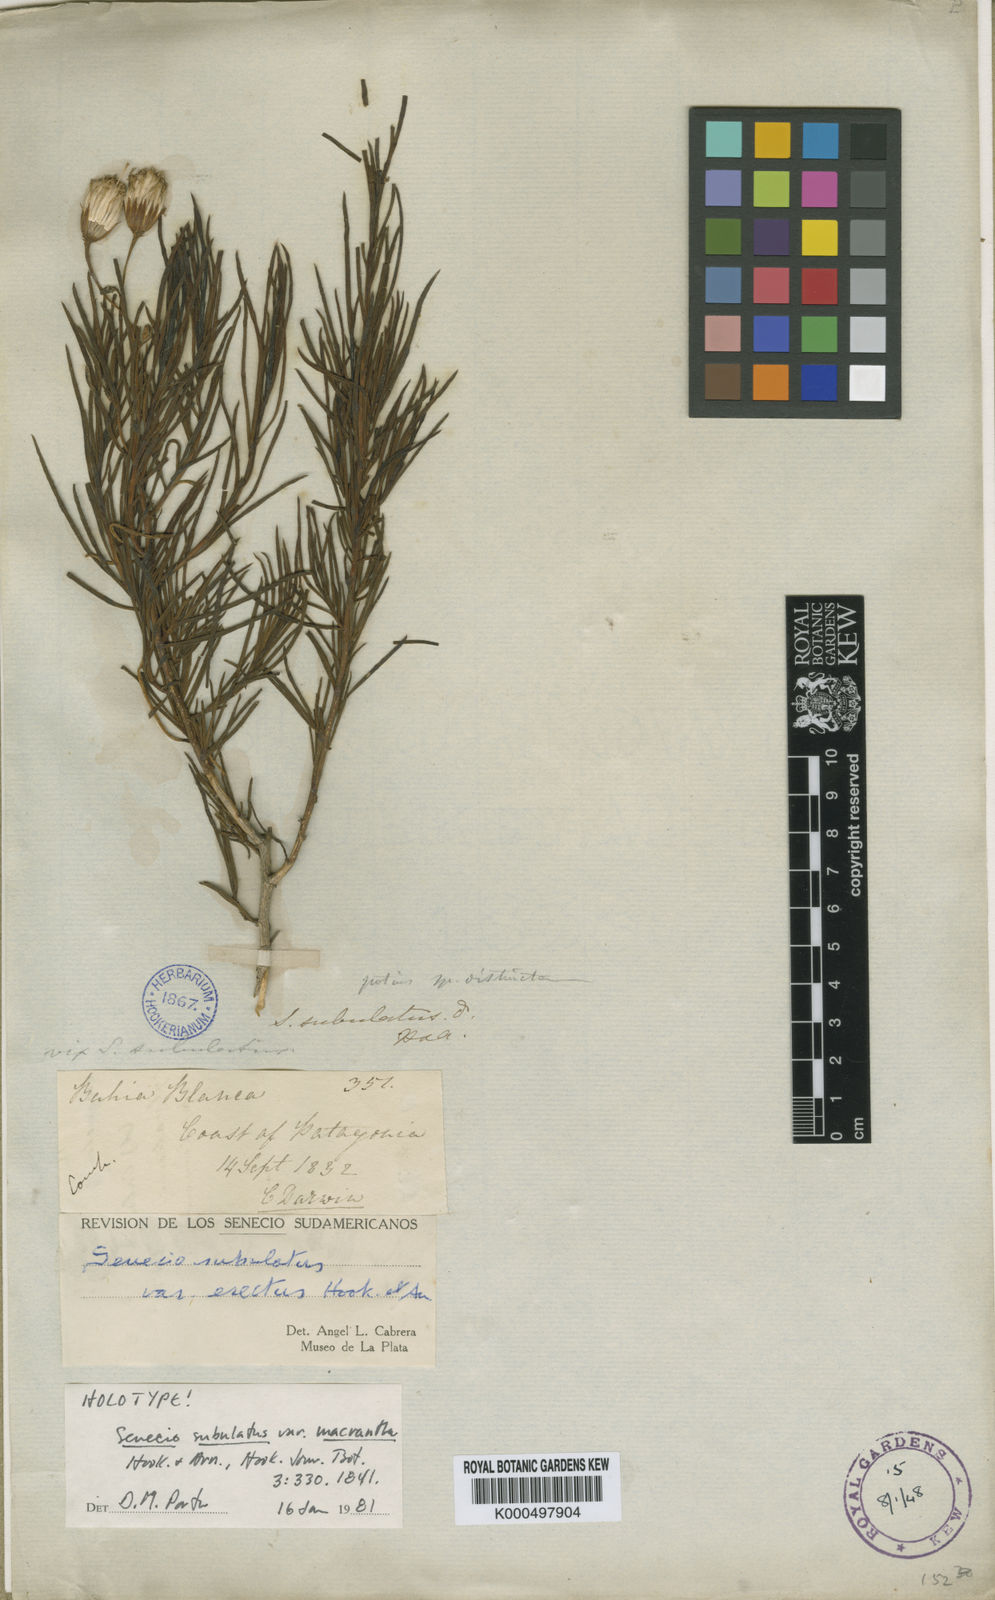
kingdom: Plantae
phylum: Tracheophyta
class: Magnoliopsida
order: Asterales
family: Asteraceae
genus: Senecio
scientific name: Senecio subulatus
